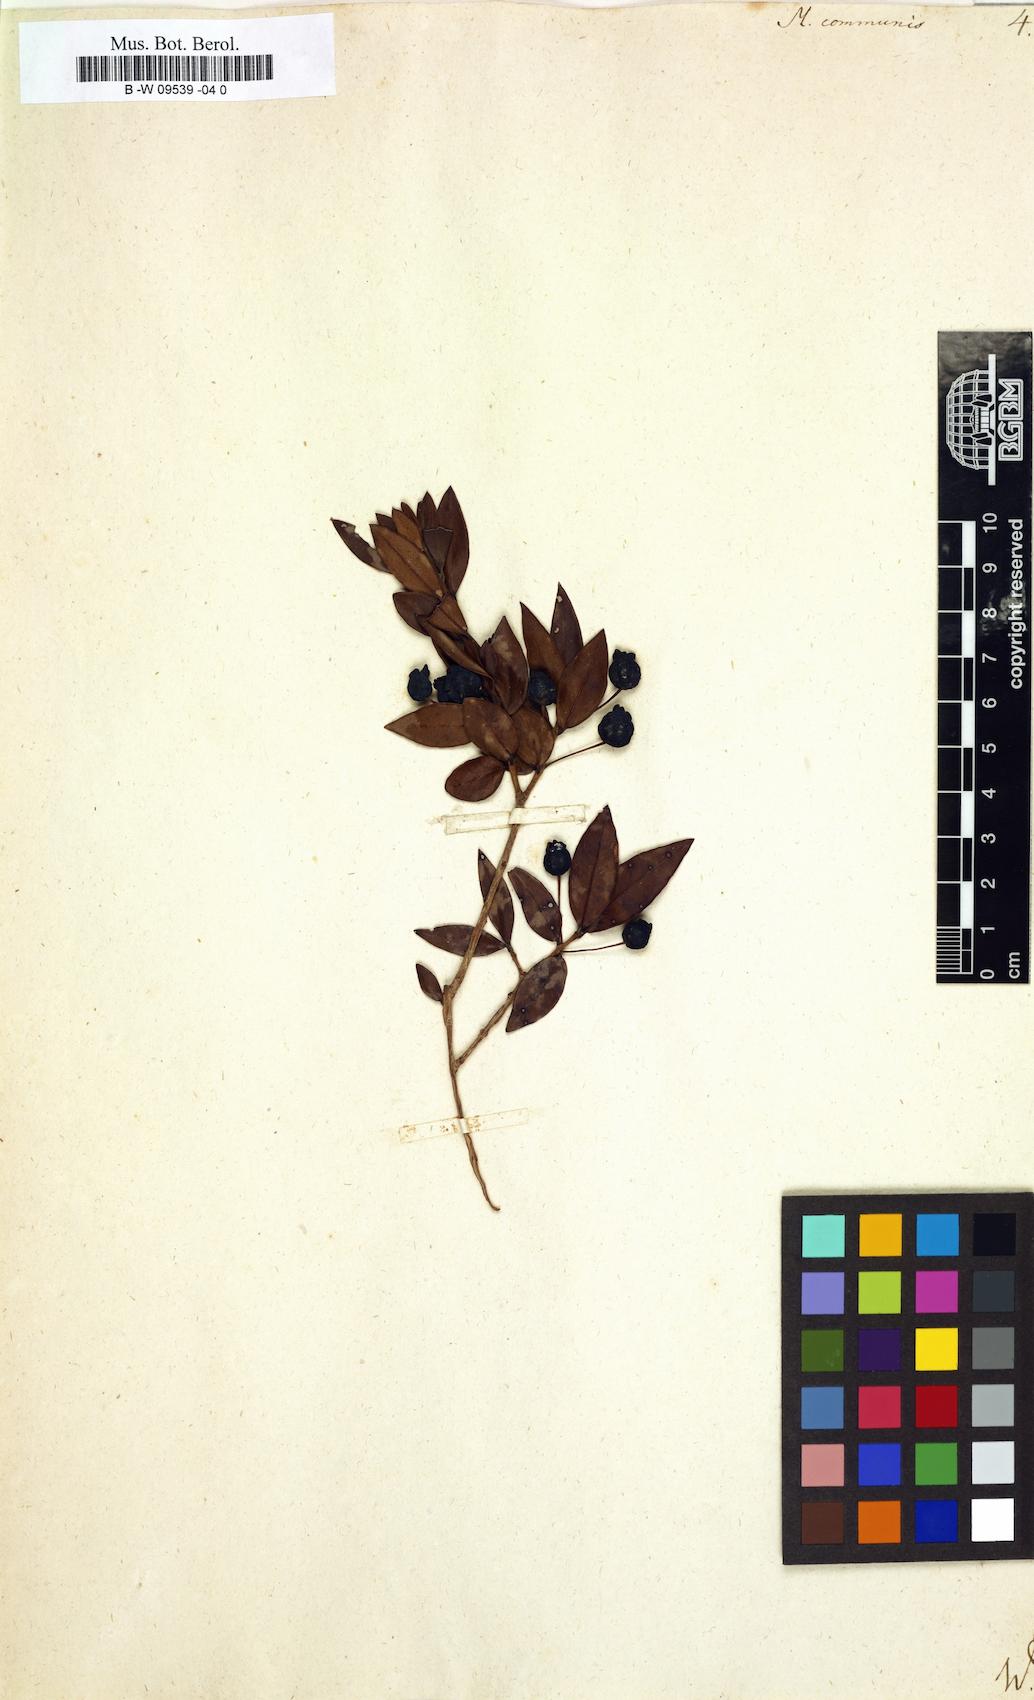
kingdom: Plantae
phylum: Tracheophyta
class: Magnoliopsida
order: Myrtales
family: Myrtaceae
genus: Myrtus
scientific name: Myrtus communis
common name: Myrtle
